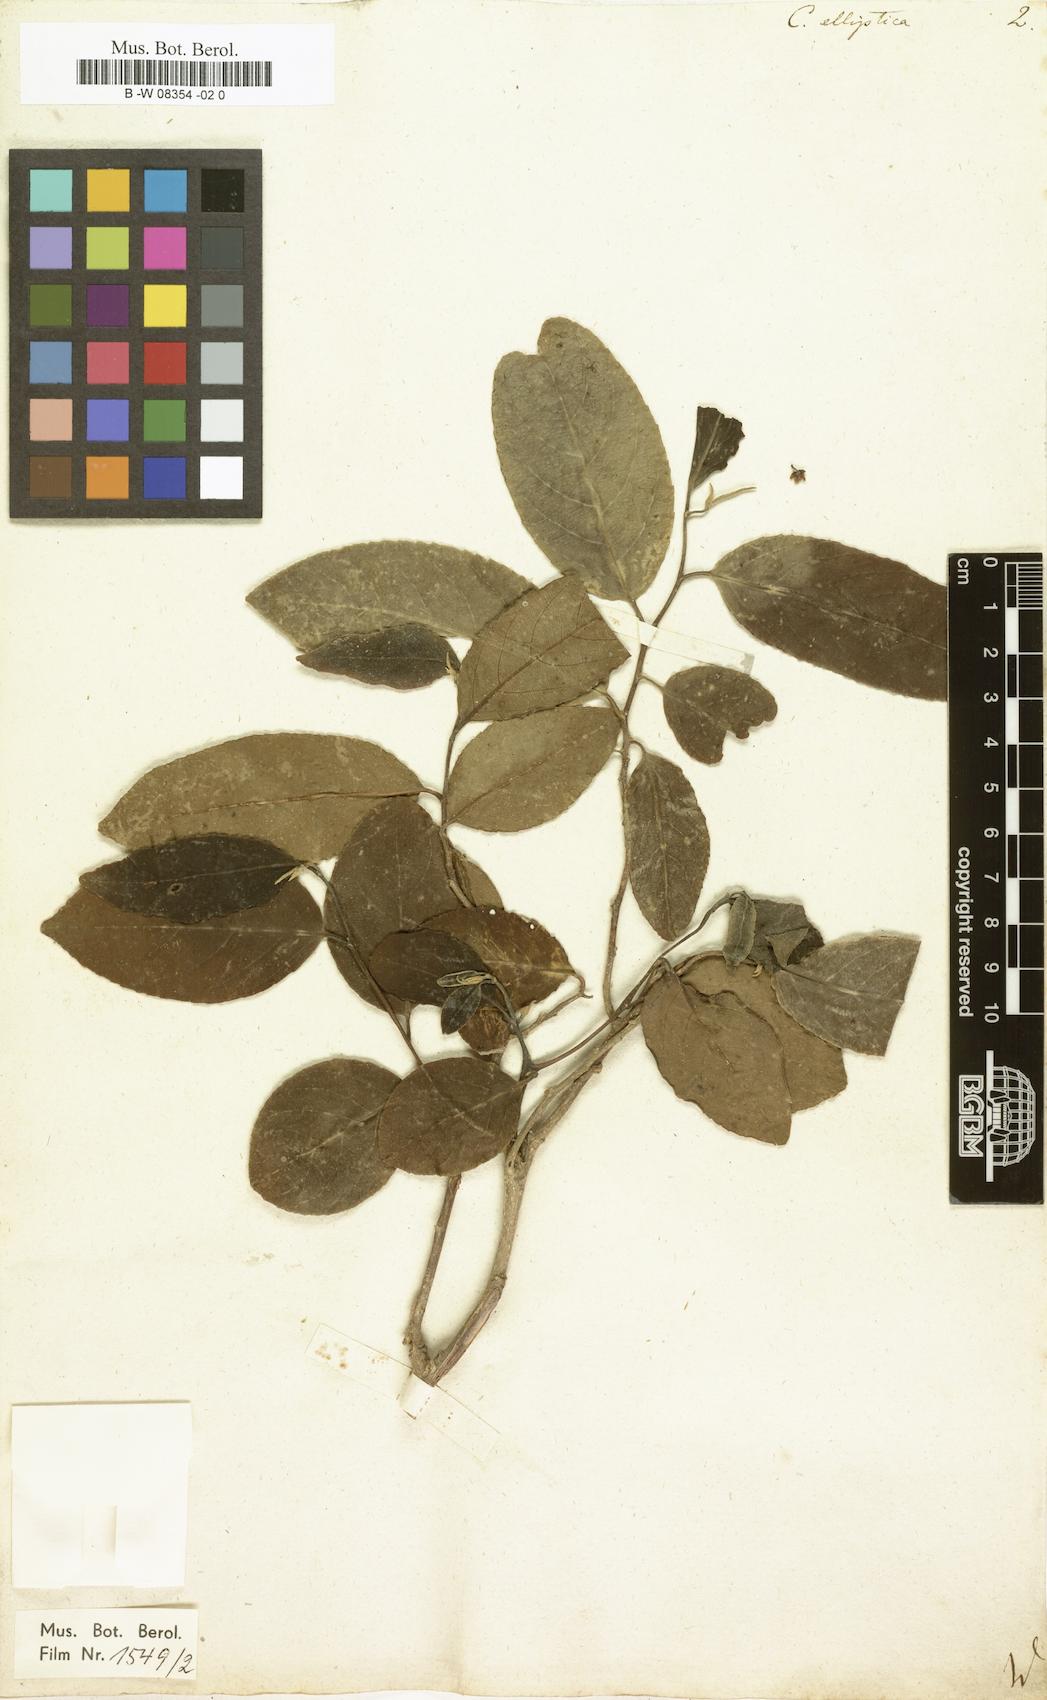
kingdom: Plantae
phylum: Tracheophyta
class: Magnoliopsida
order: Malpighiales
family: Salicaceae
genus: Casearia
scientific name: Casearia elliptica
